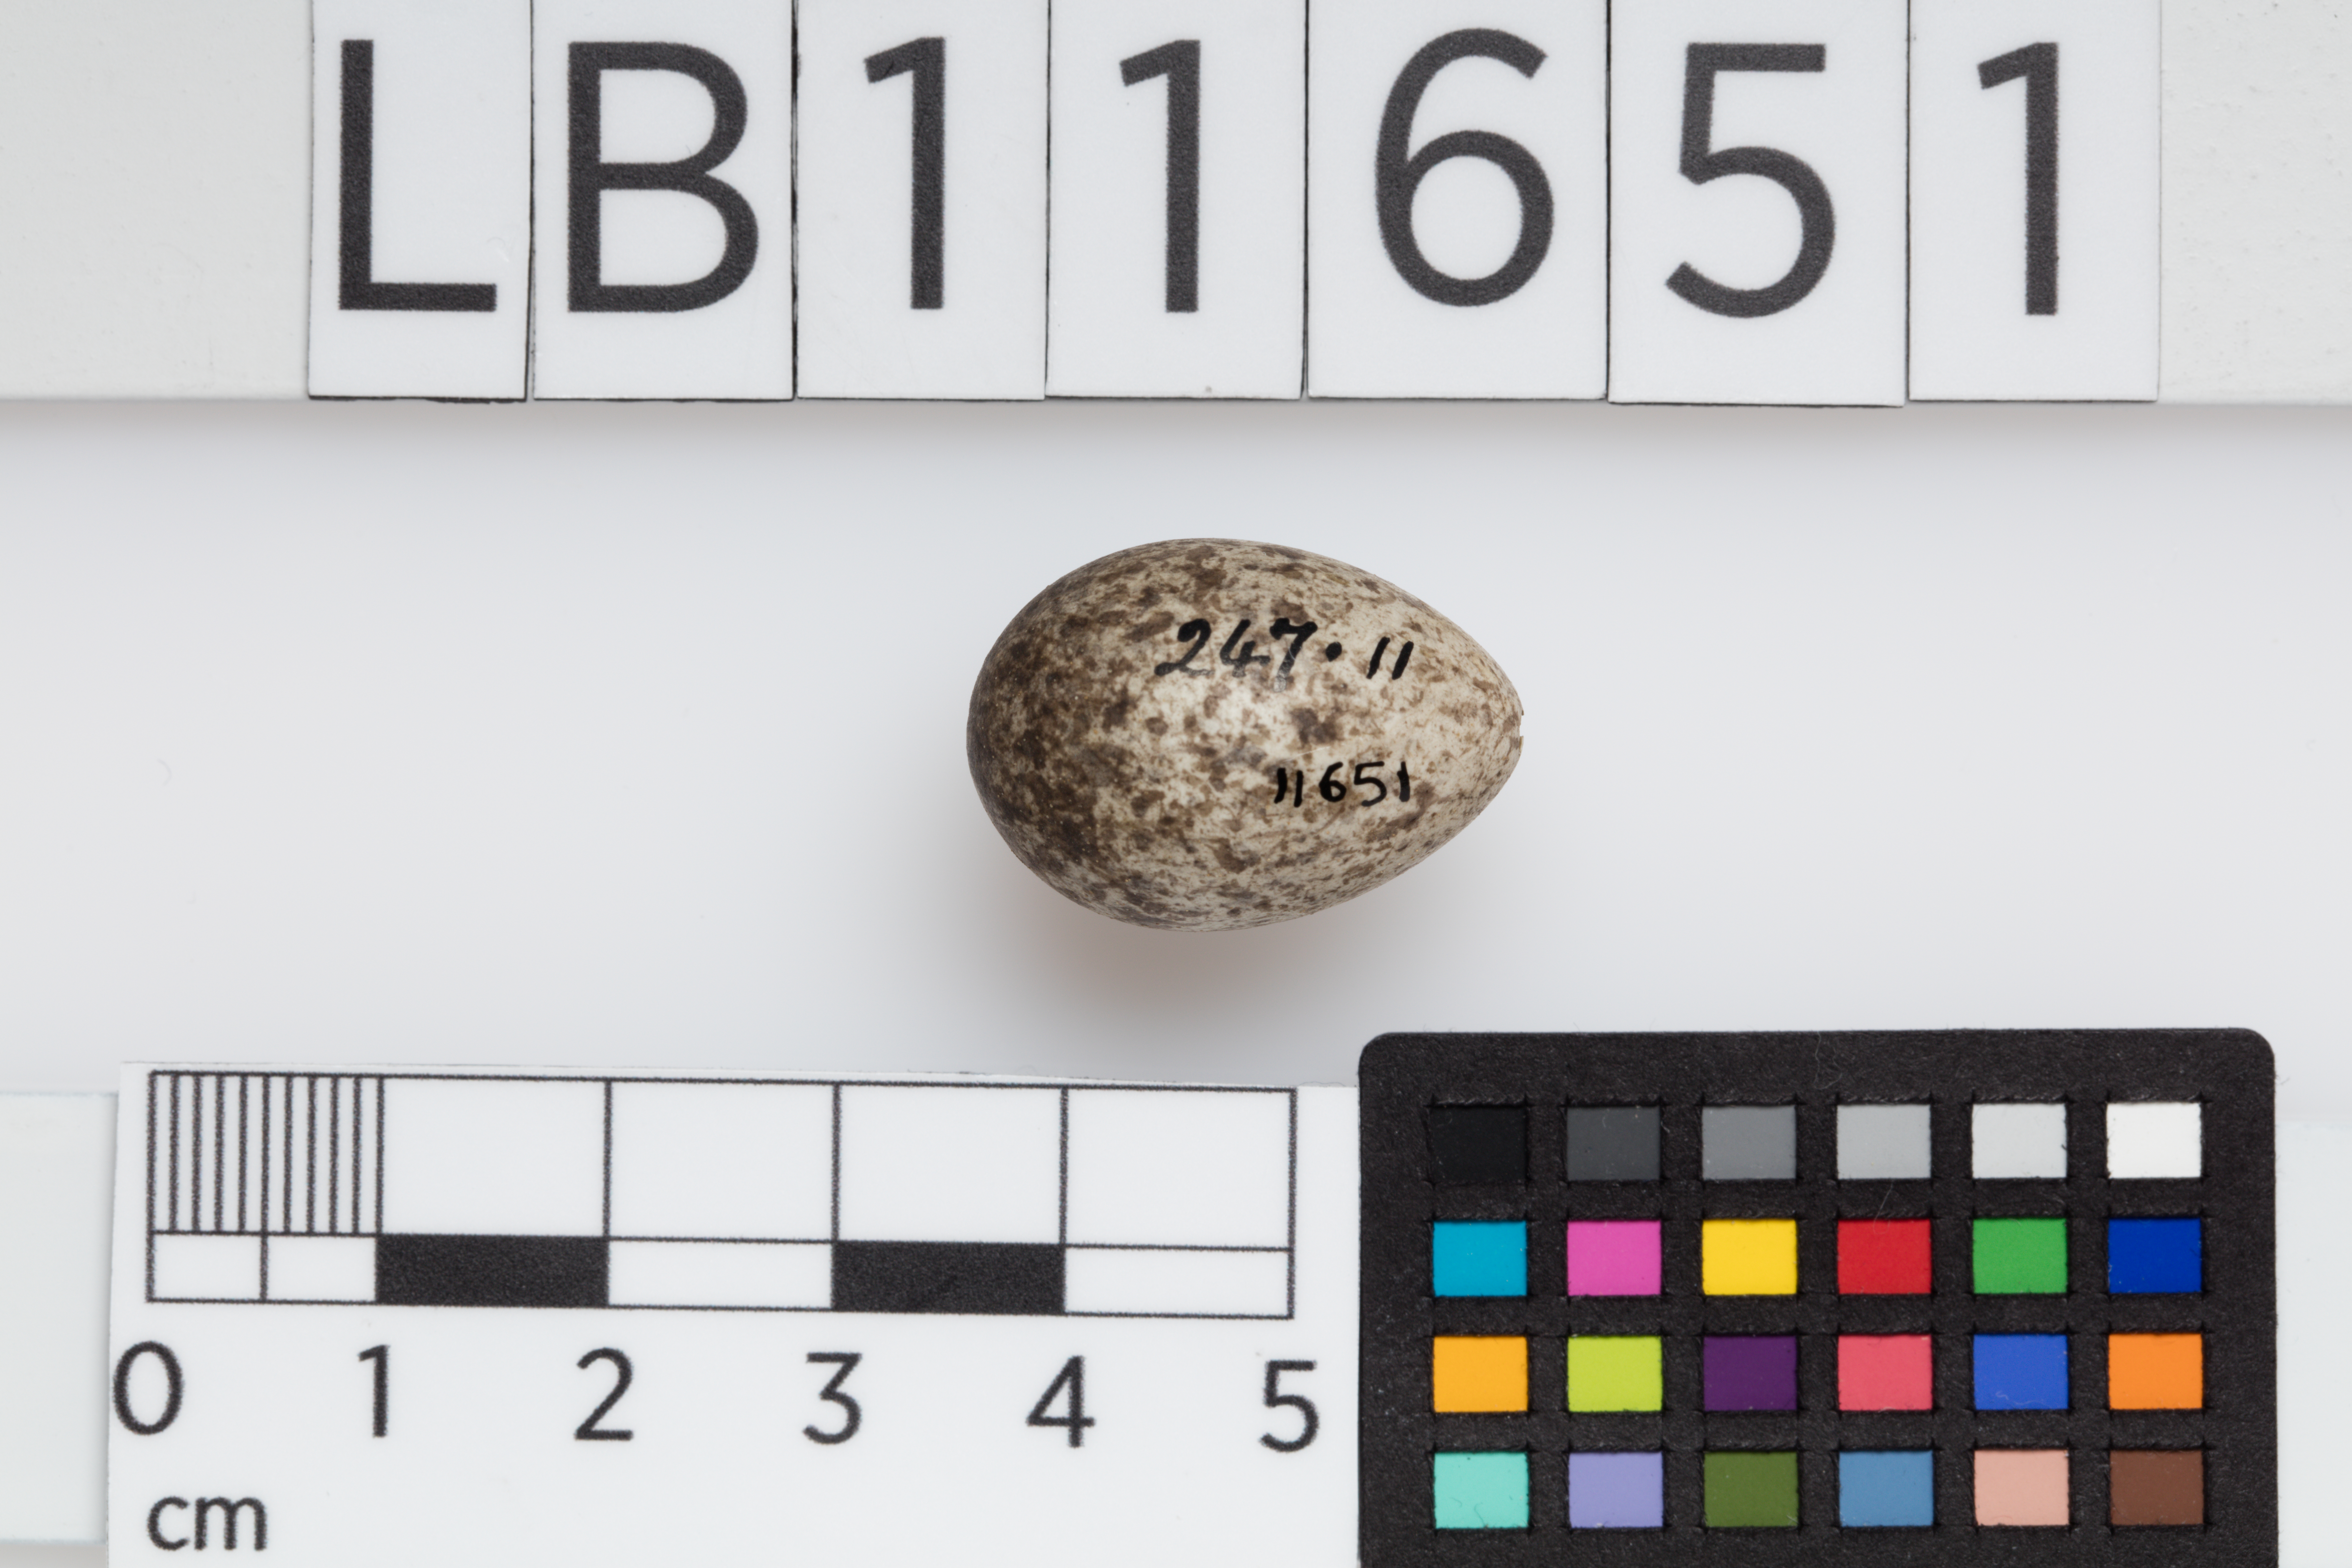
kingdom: Animalia
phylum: Chordata
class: Aves
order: Passeriformes
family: Passeridae
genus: Passer
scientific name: Passer domesticus
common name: House sparrow
